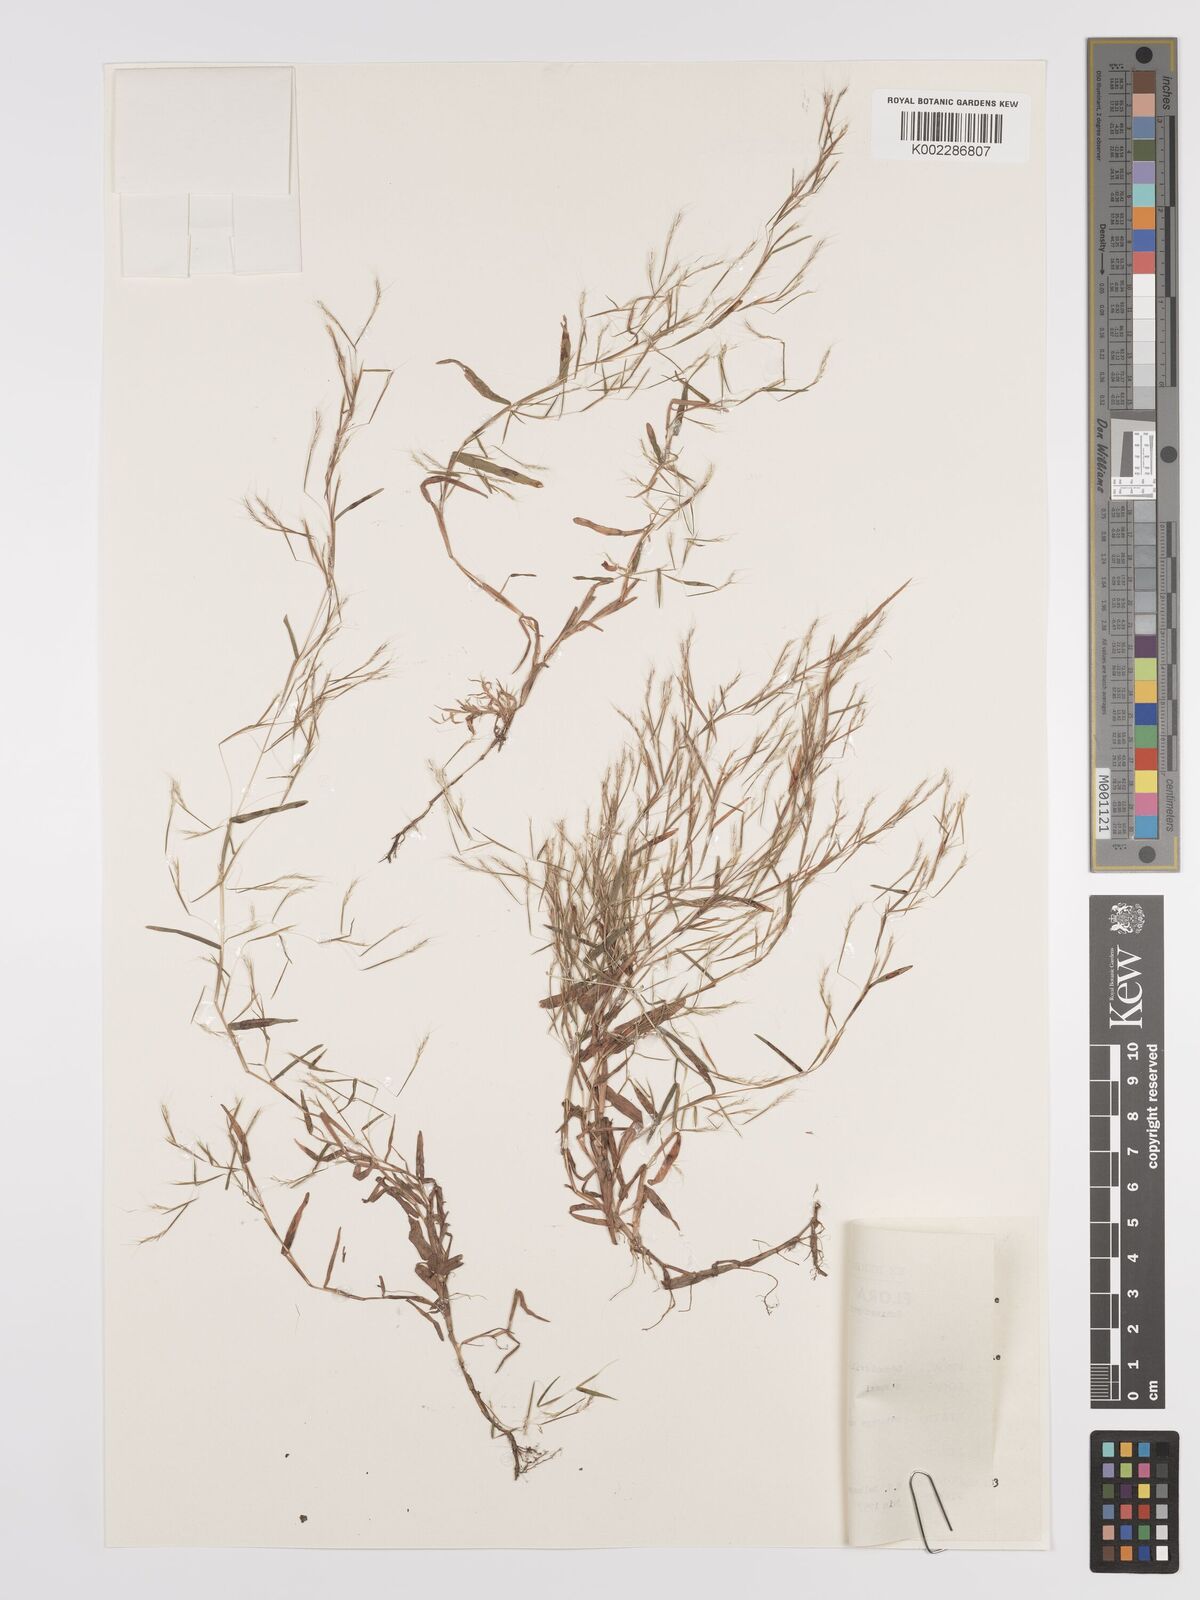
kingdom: Plantae
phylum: Tracheophyta
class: Liliopsida
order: Poales
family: Poaceae
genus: Schizachyrium
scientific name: Schizachyrium brevifolium
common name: Serillo dulce
